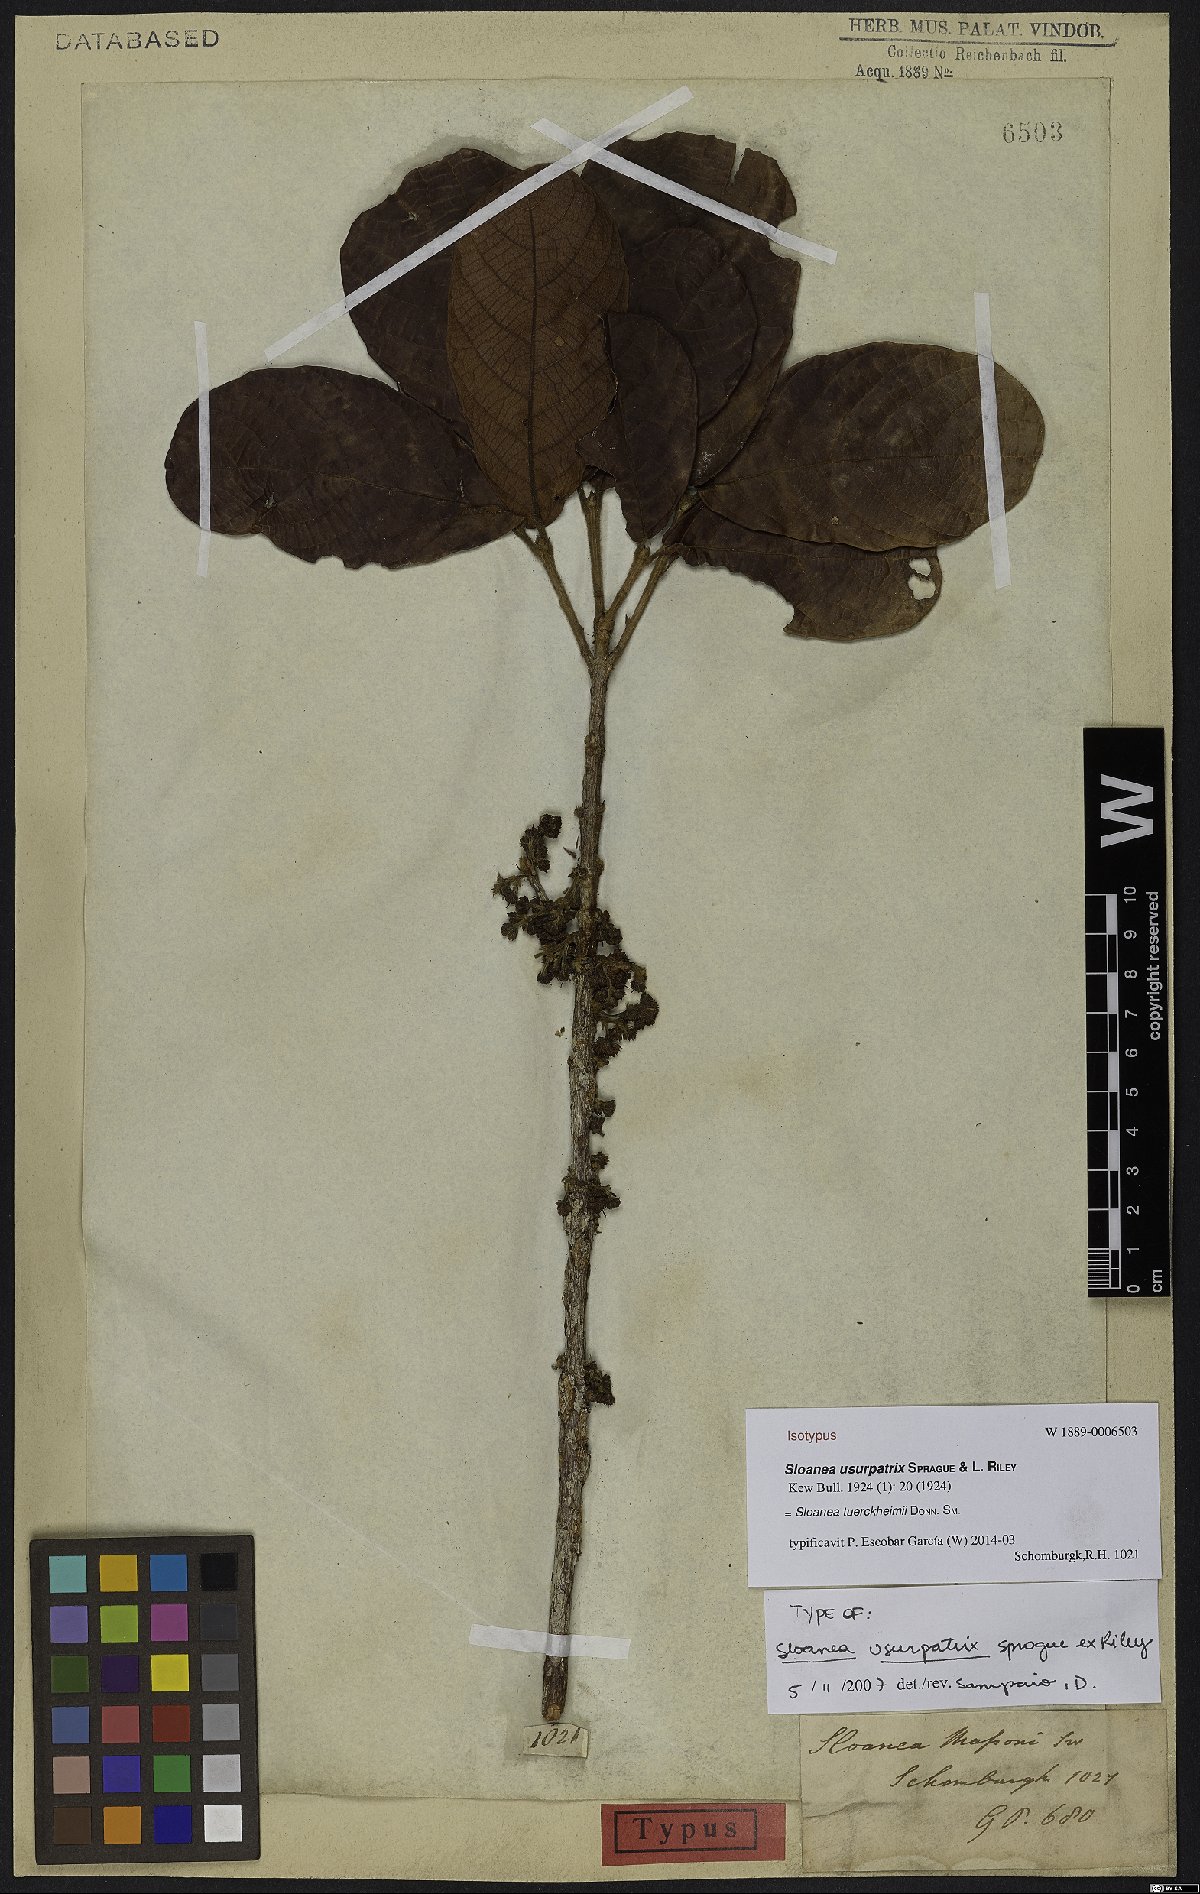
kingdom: Plantae
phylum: Tracheophyta
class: Magnoliopsida
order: Oxalidales
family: Elaeocarpaceae
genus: Sloanea
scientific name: Sloanea tuerckheimii
